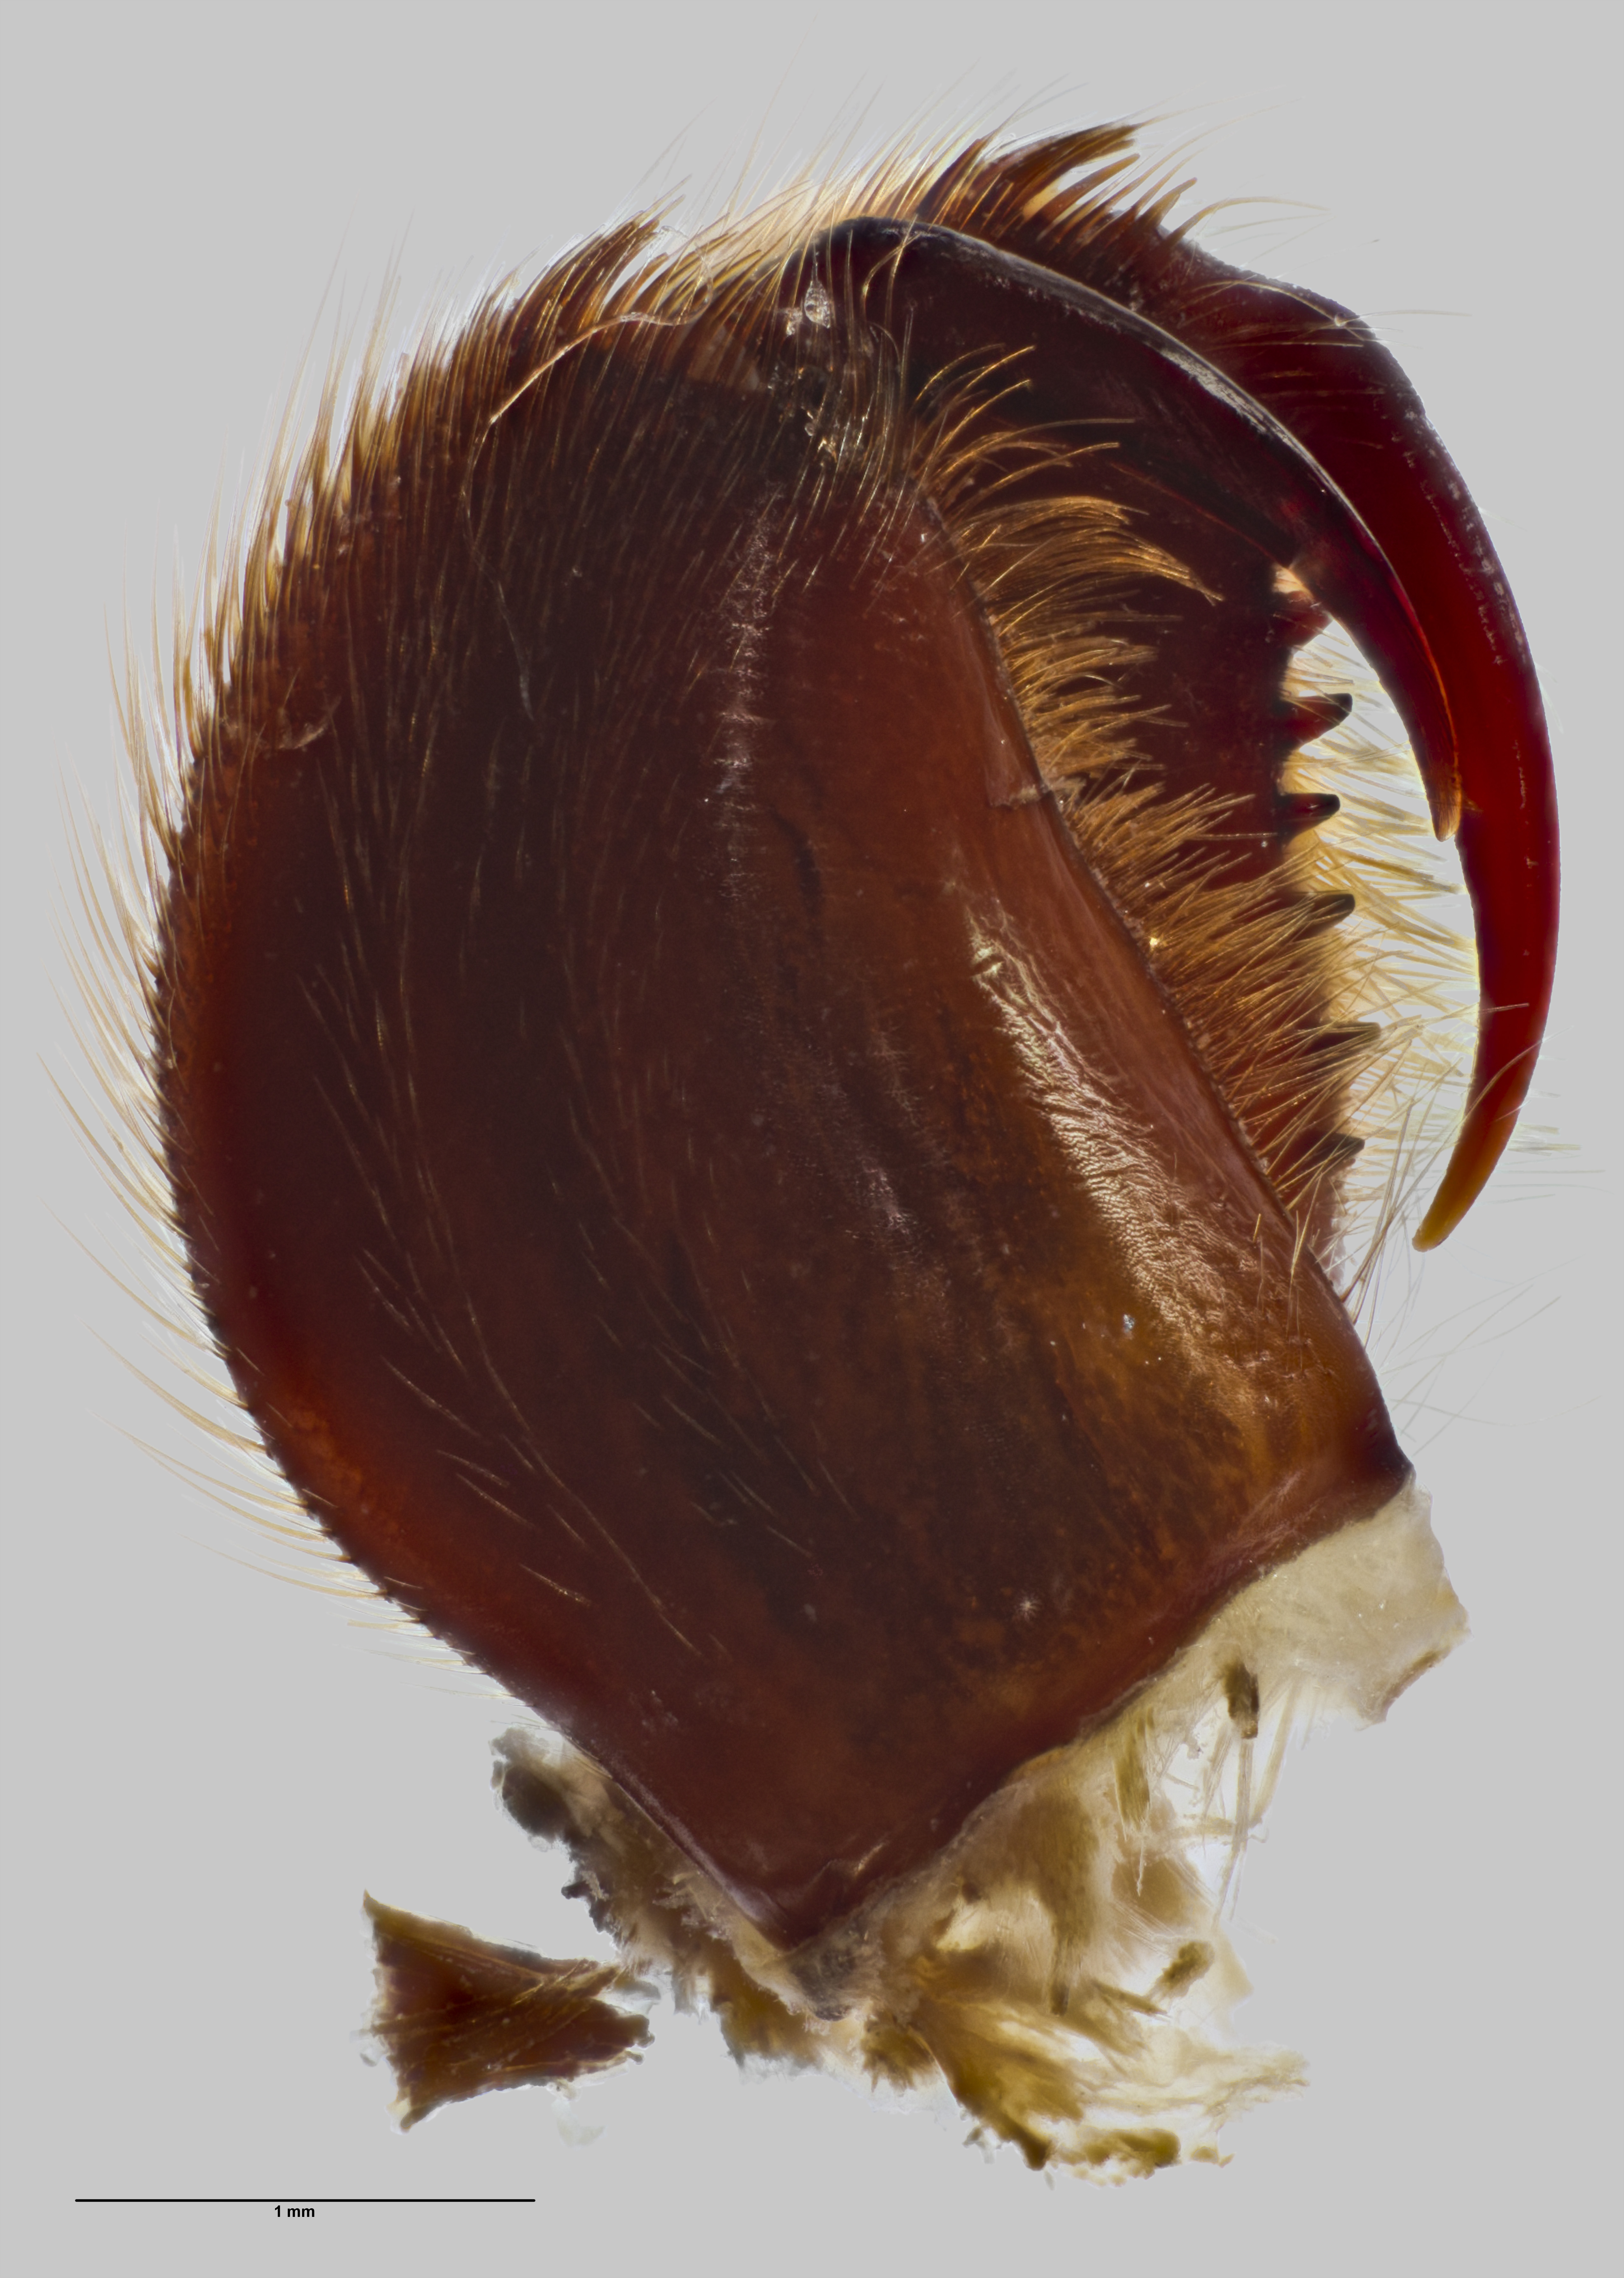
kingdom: Animalia
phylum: Arthropoda
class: Arachnida
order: Araneae
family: Pycnothelidae
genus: Stanwellia
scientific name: Stanwellia hapua
